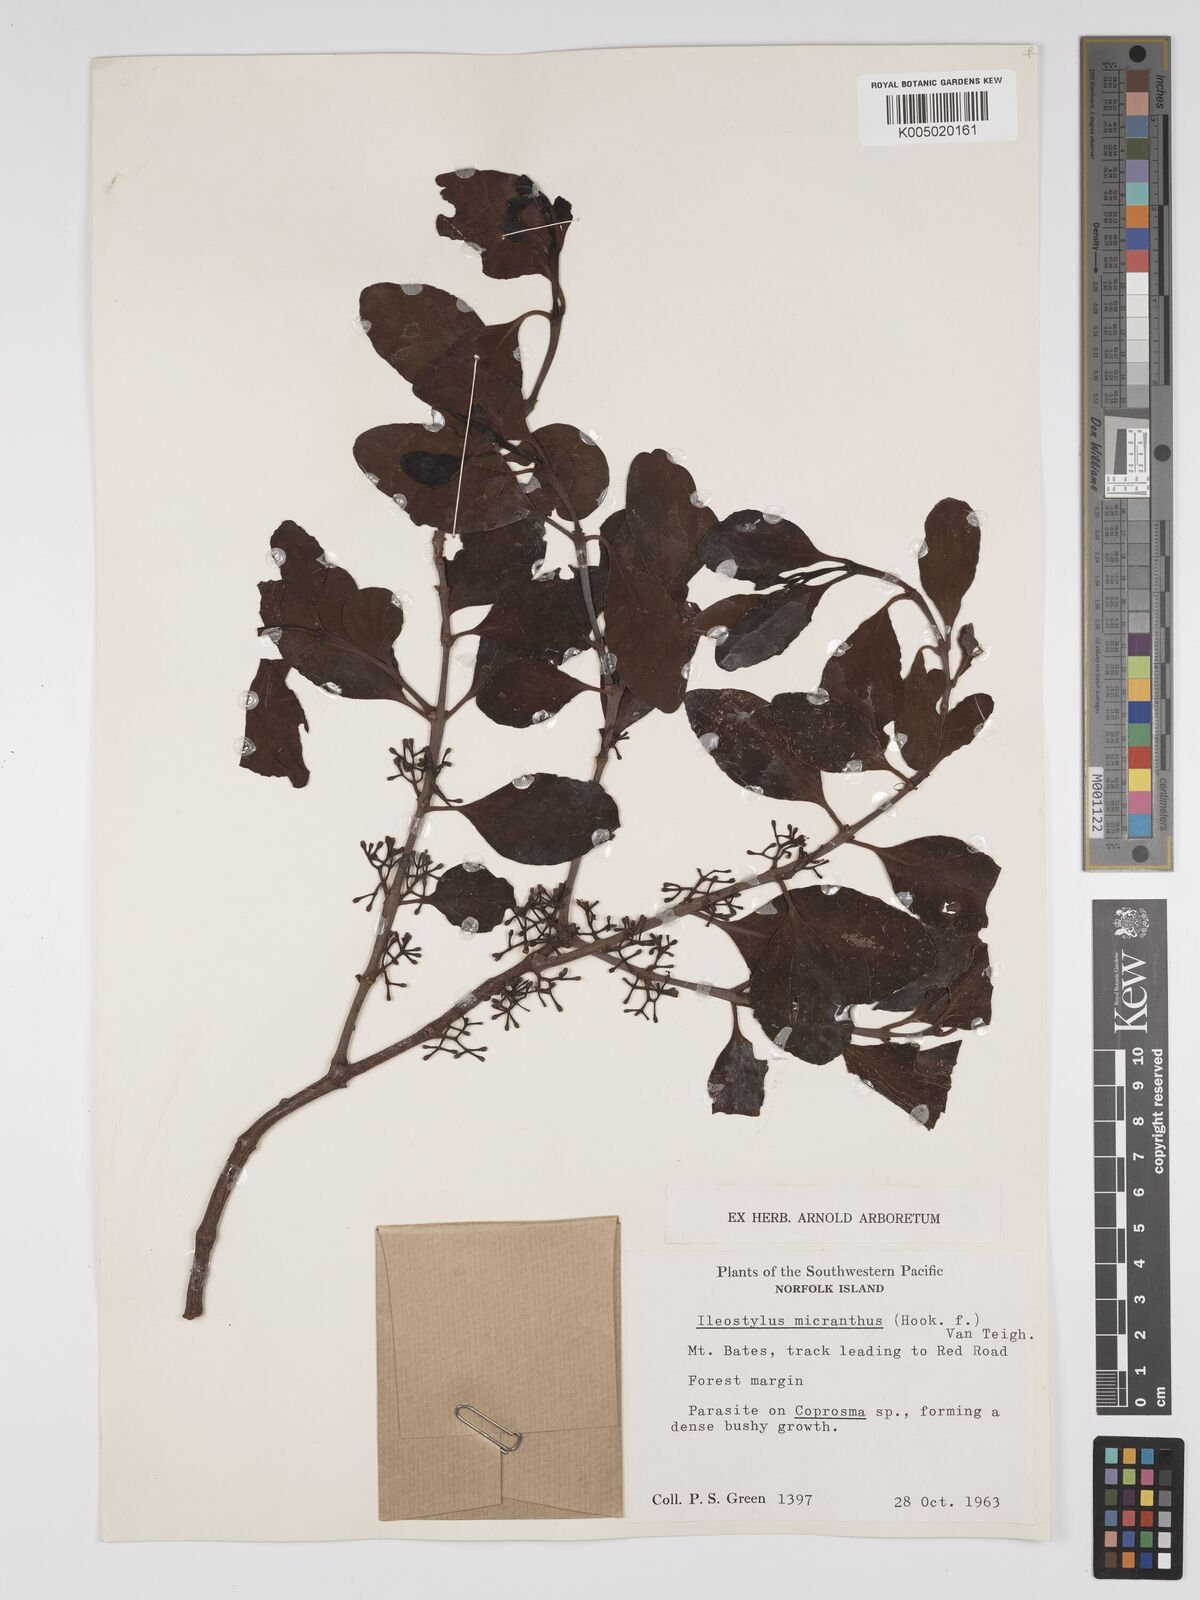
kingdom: Plantae
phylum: Tracheophyta
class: Magnoliopsida
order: Santalales
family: Loranthaceae
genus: Ileostylus
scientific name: Ileostylus micranthus
